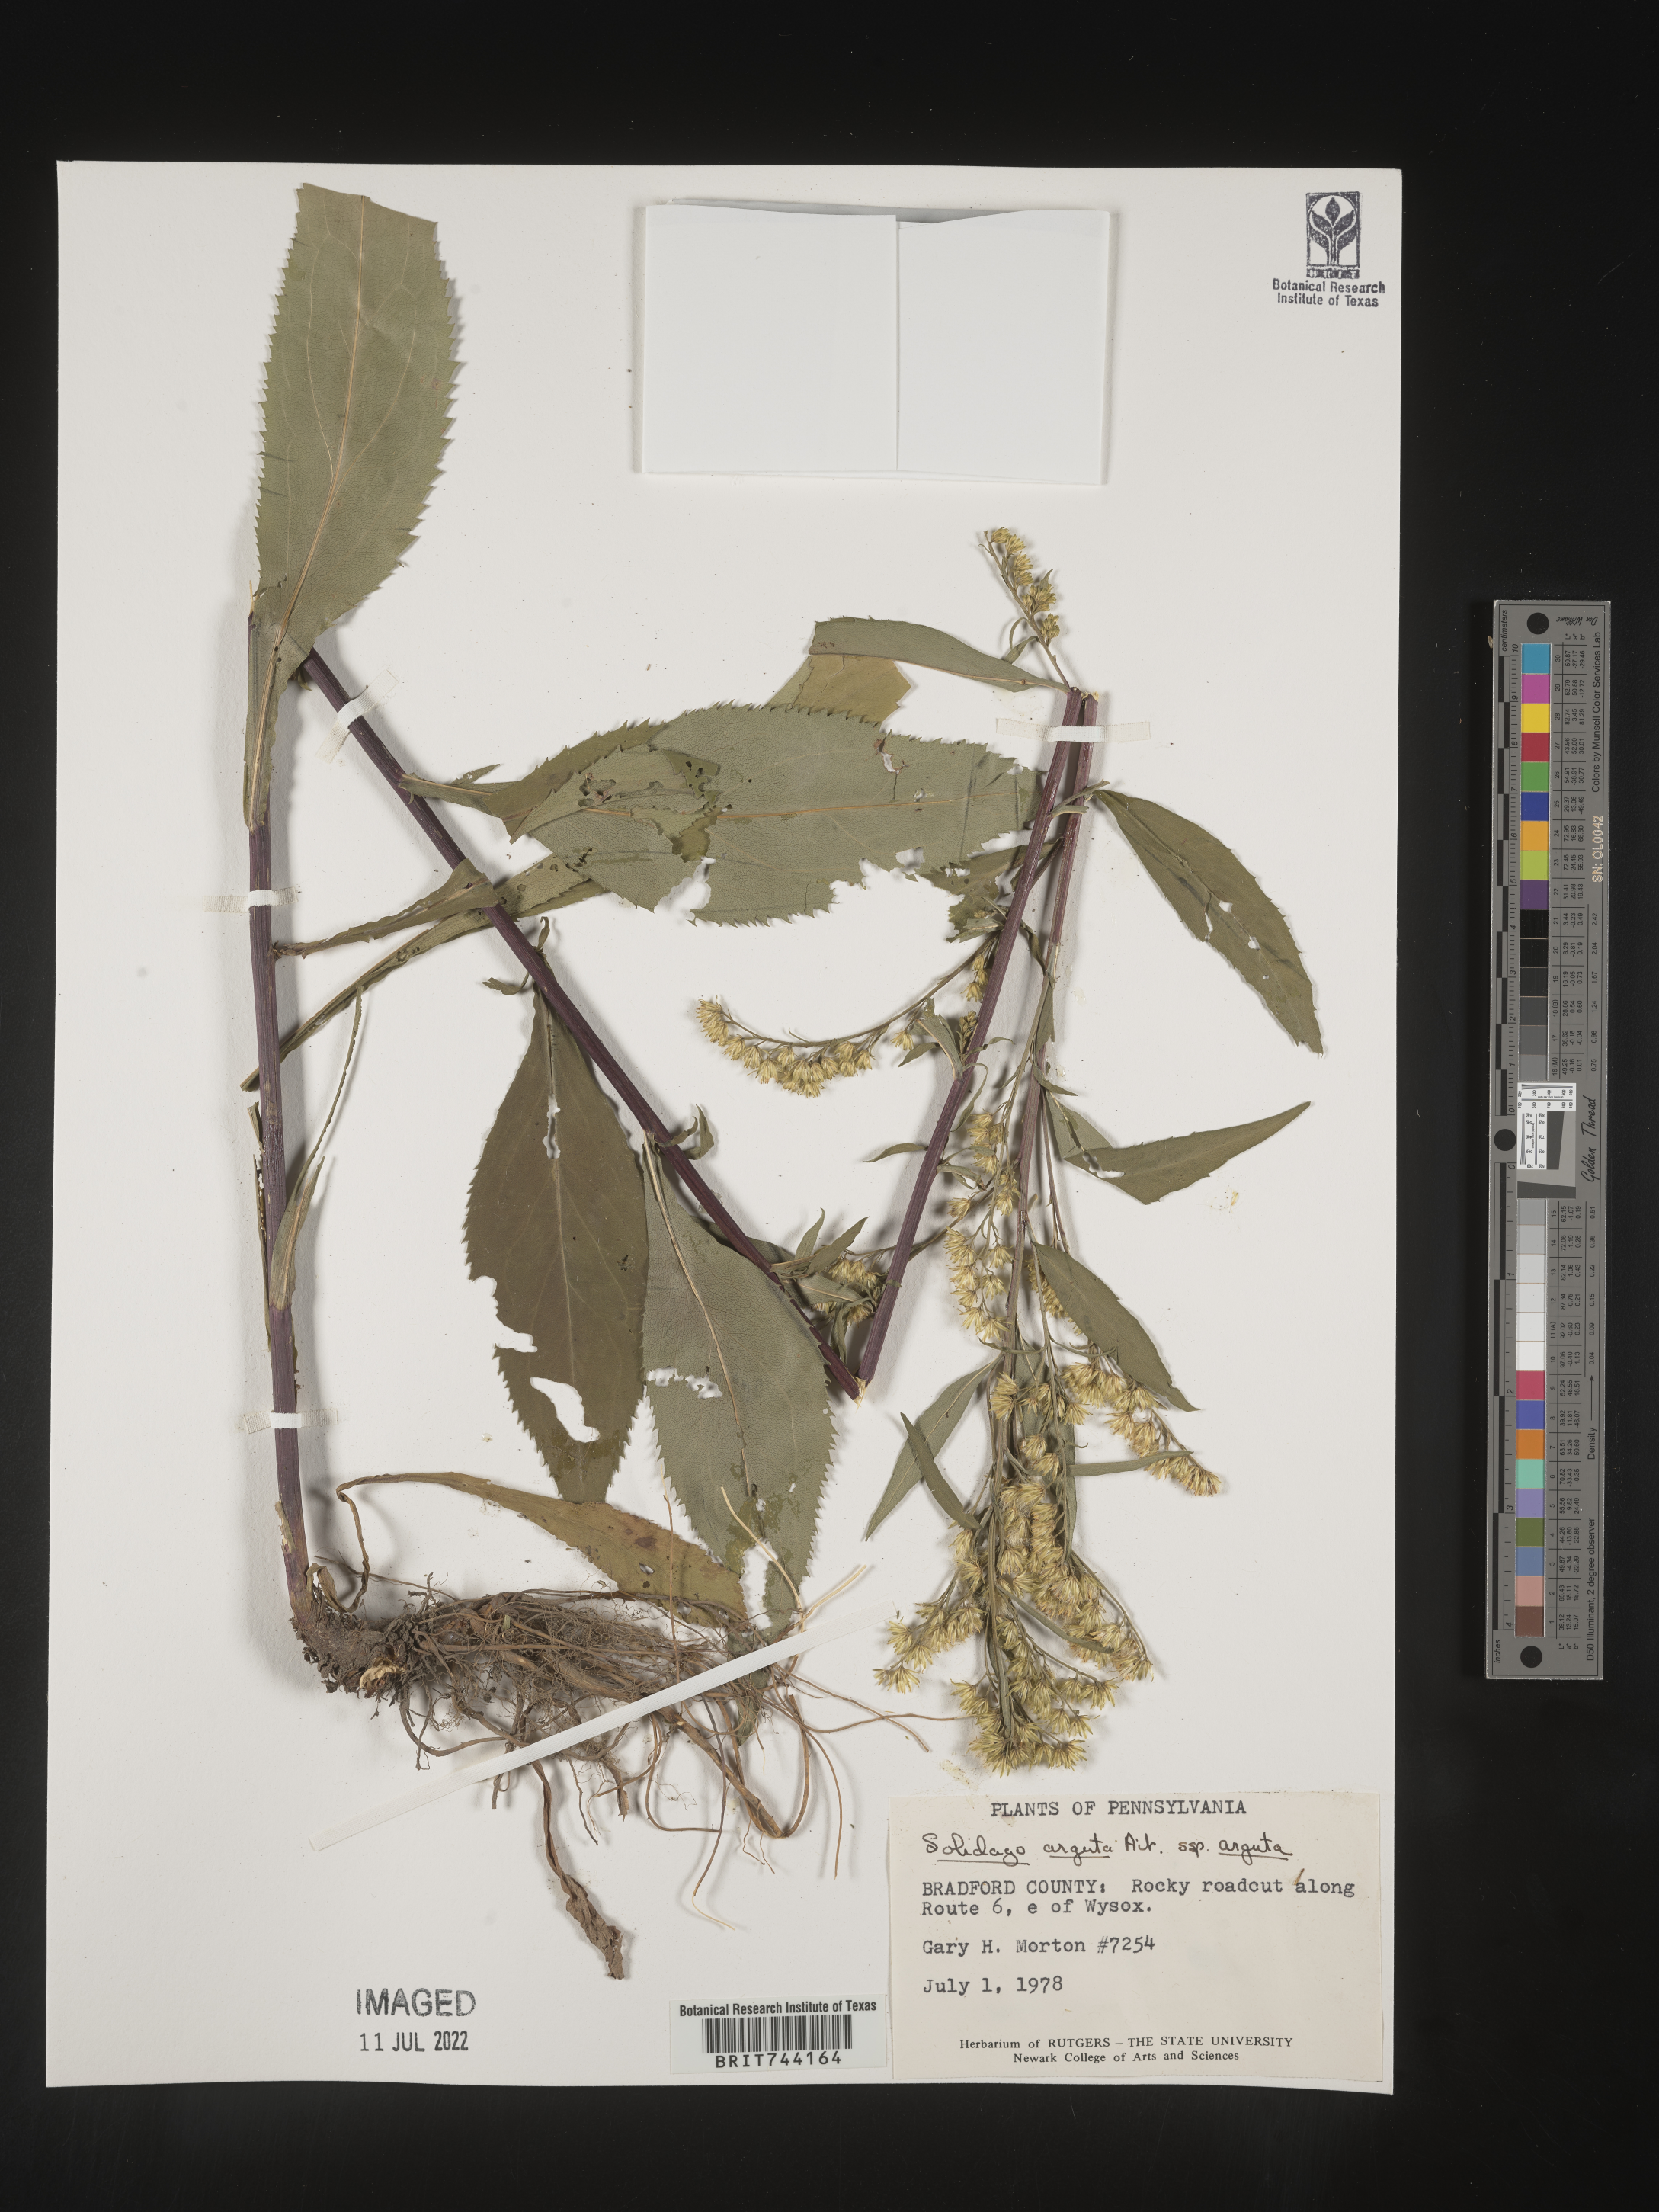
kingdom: Plantae
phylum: Tracheophyta
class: Magnoliopsida
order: Asterales
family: Asteraceae
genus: Solidago
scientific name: Solidago arguta
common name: Atlantic goldenrod
